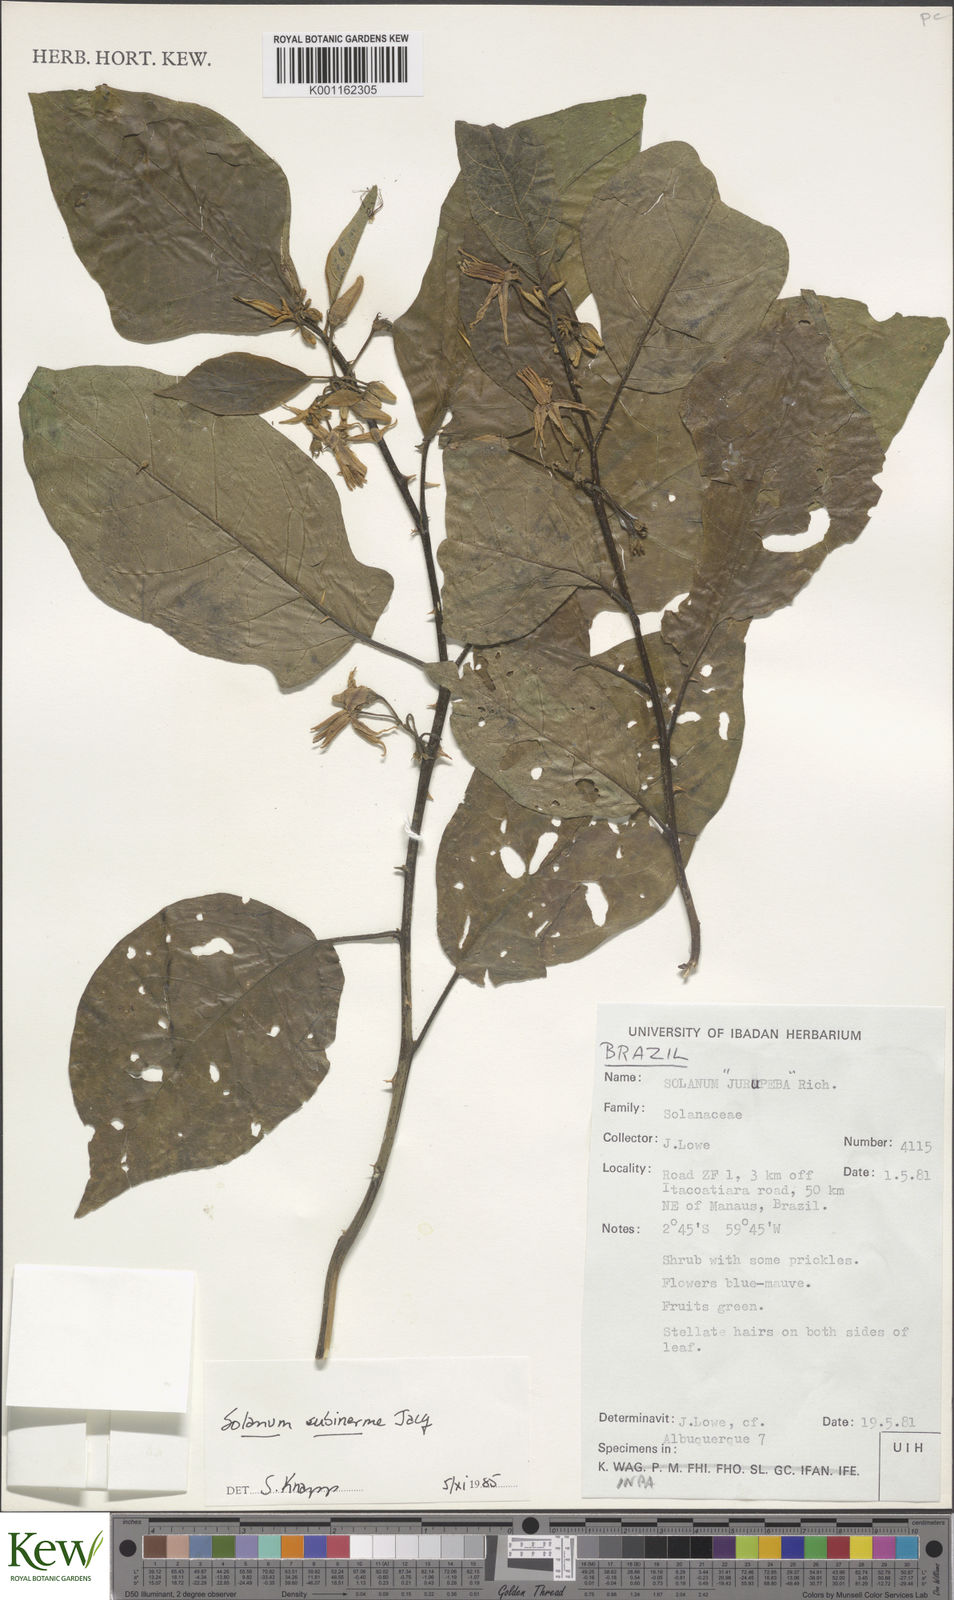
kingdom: Plantae
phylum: Tracheophyta
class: Magnoliopsida
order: Solanales
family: Solanaceae
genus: Solanum
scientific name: Solanum subinerme
